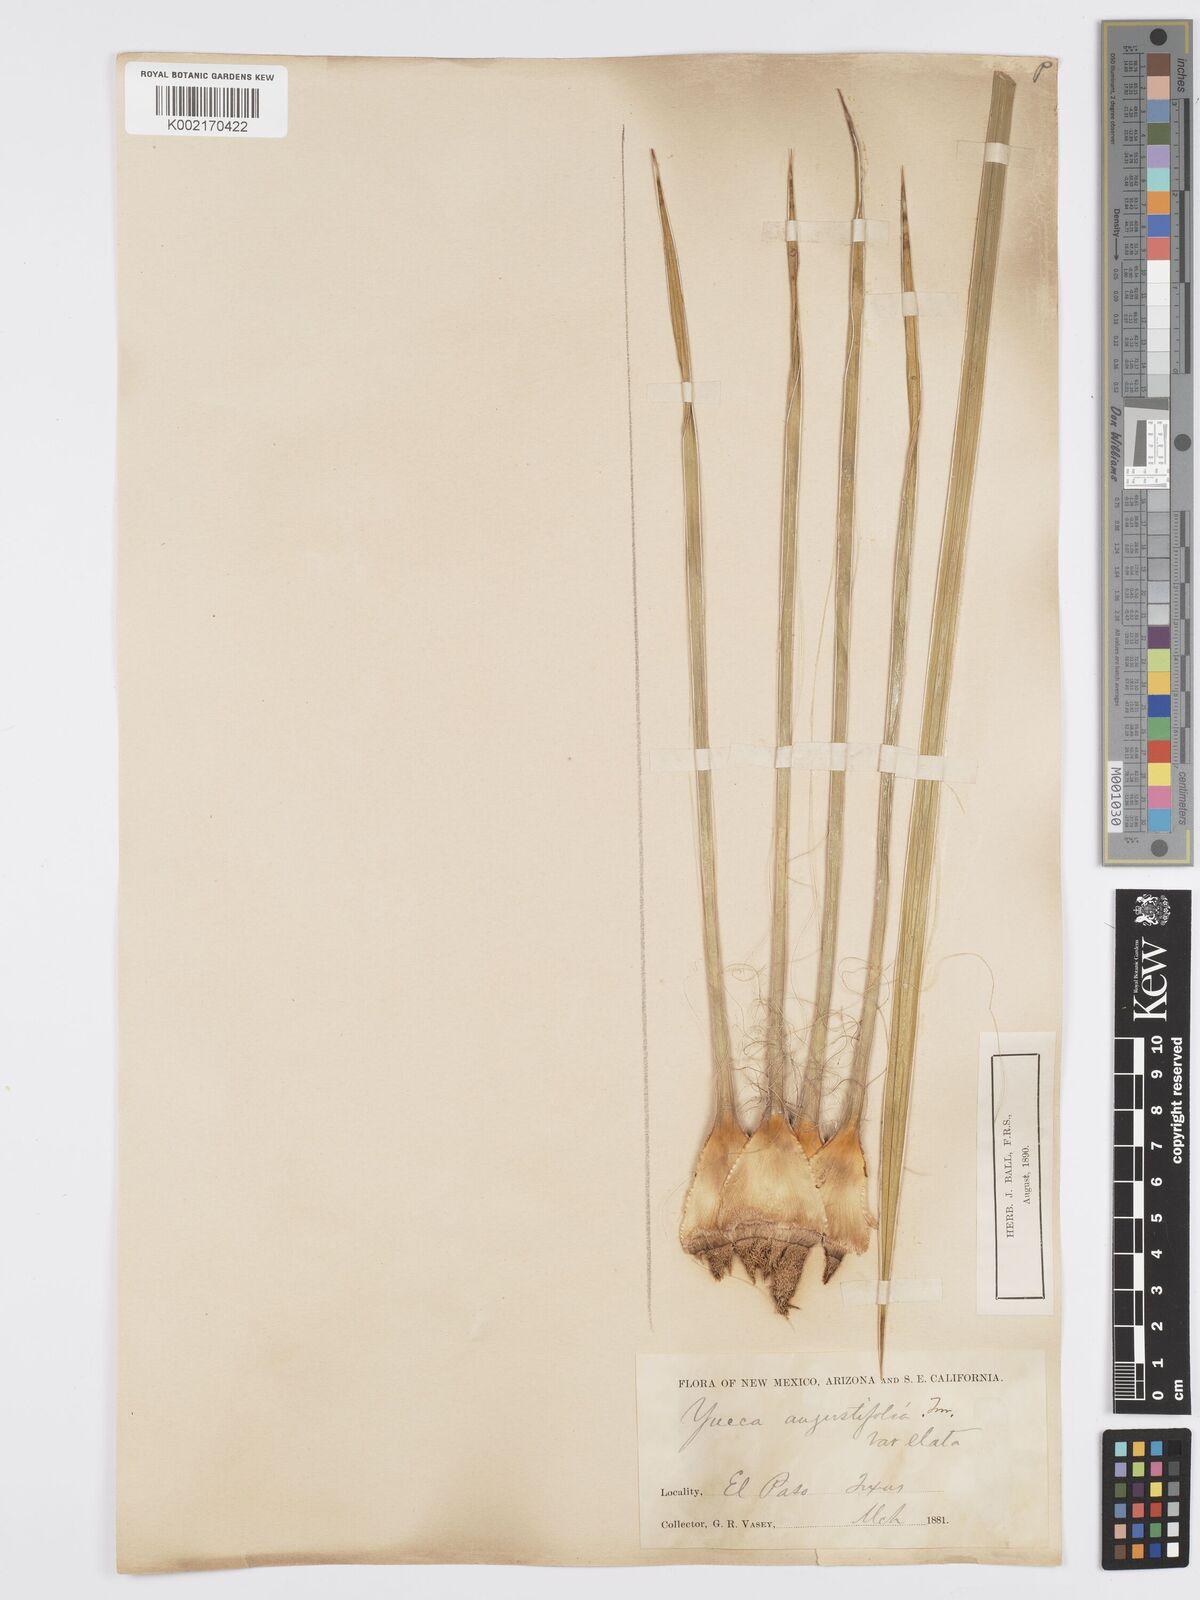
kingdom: Plantae
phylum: Tracheophyta
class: Liliopsida
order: Asparagales
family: Asparagaceae
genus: Yucca
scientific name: Yucca glauca
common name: Great plains yucca
